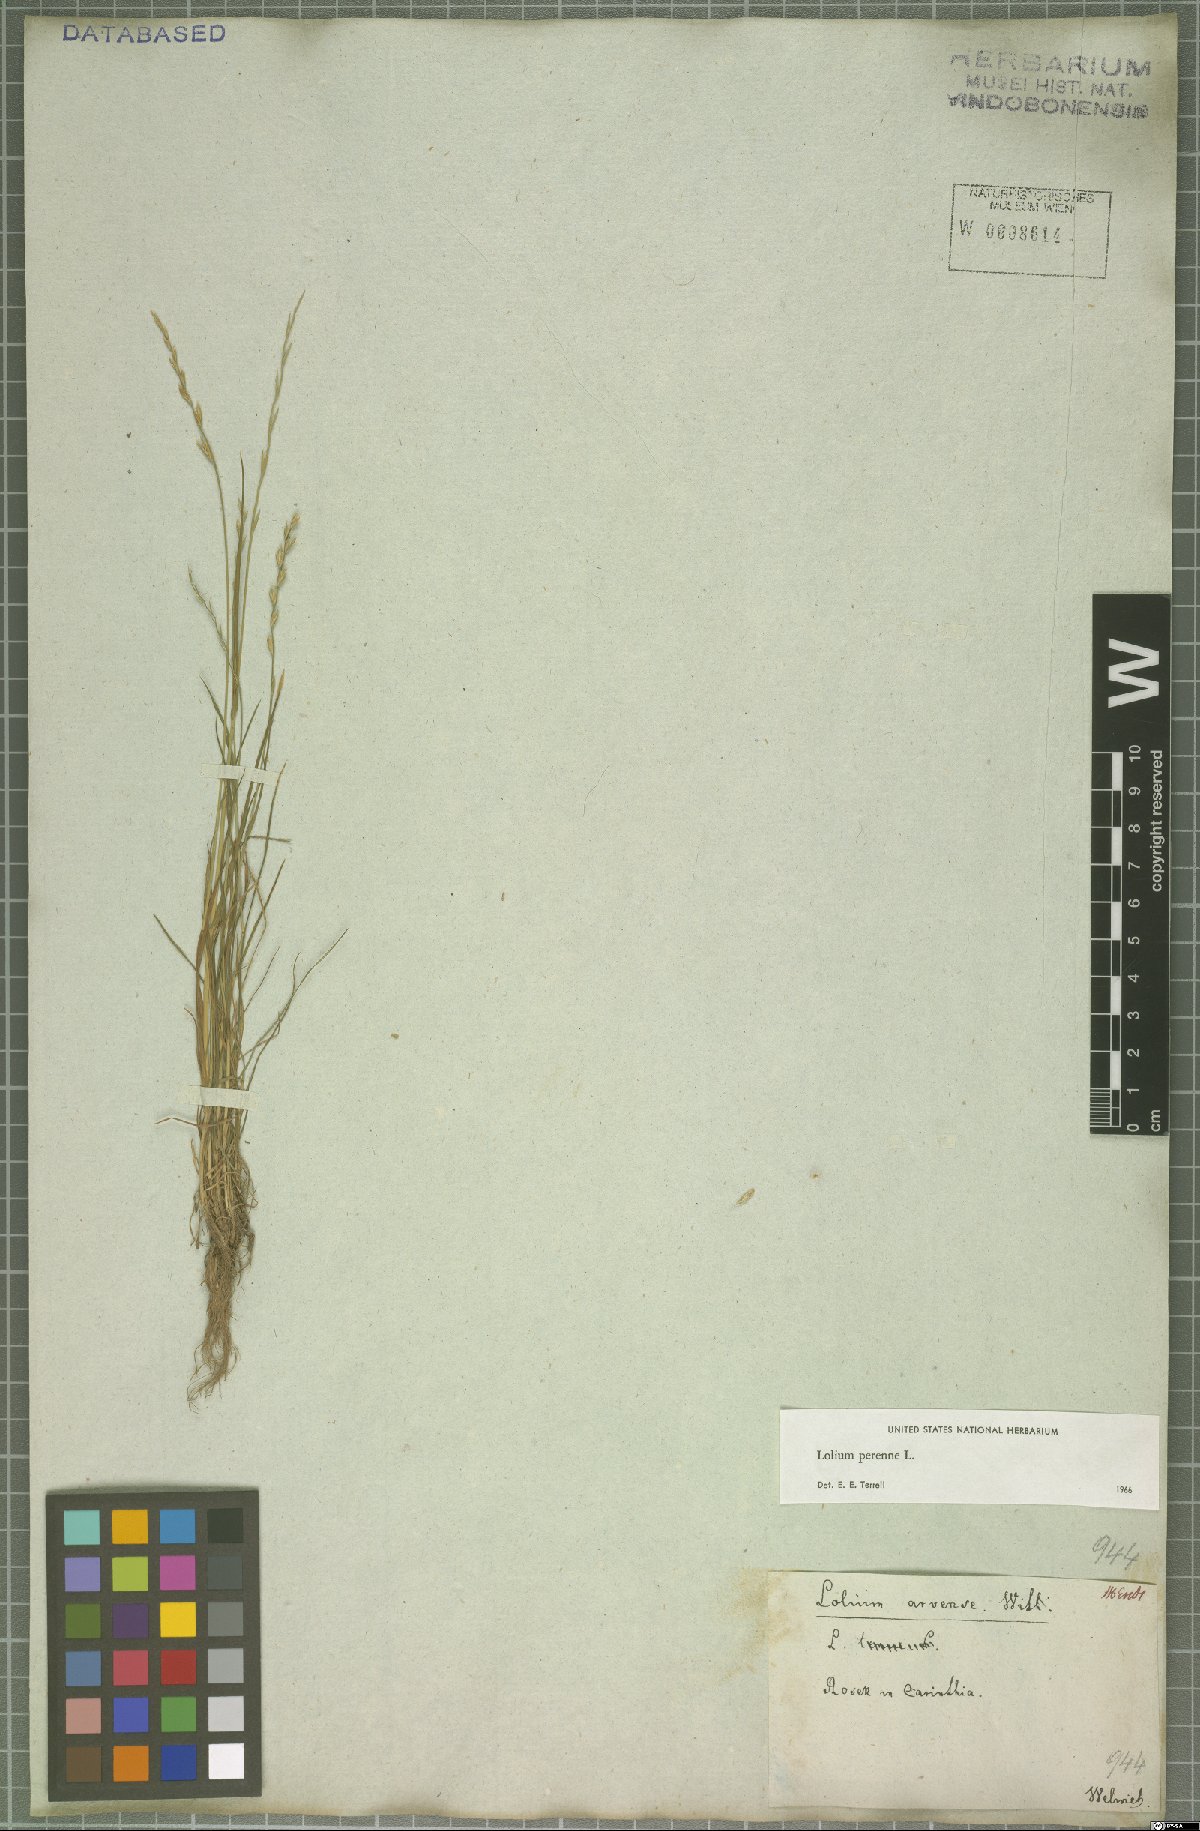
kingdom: Plantae
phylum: Tracheophyta
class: Liliopsida
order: Poales
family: Poaceae
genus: Lolium
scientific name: Lolium perenne
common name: Perennial ryegrass
